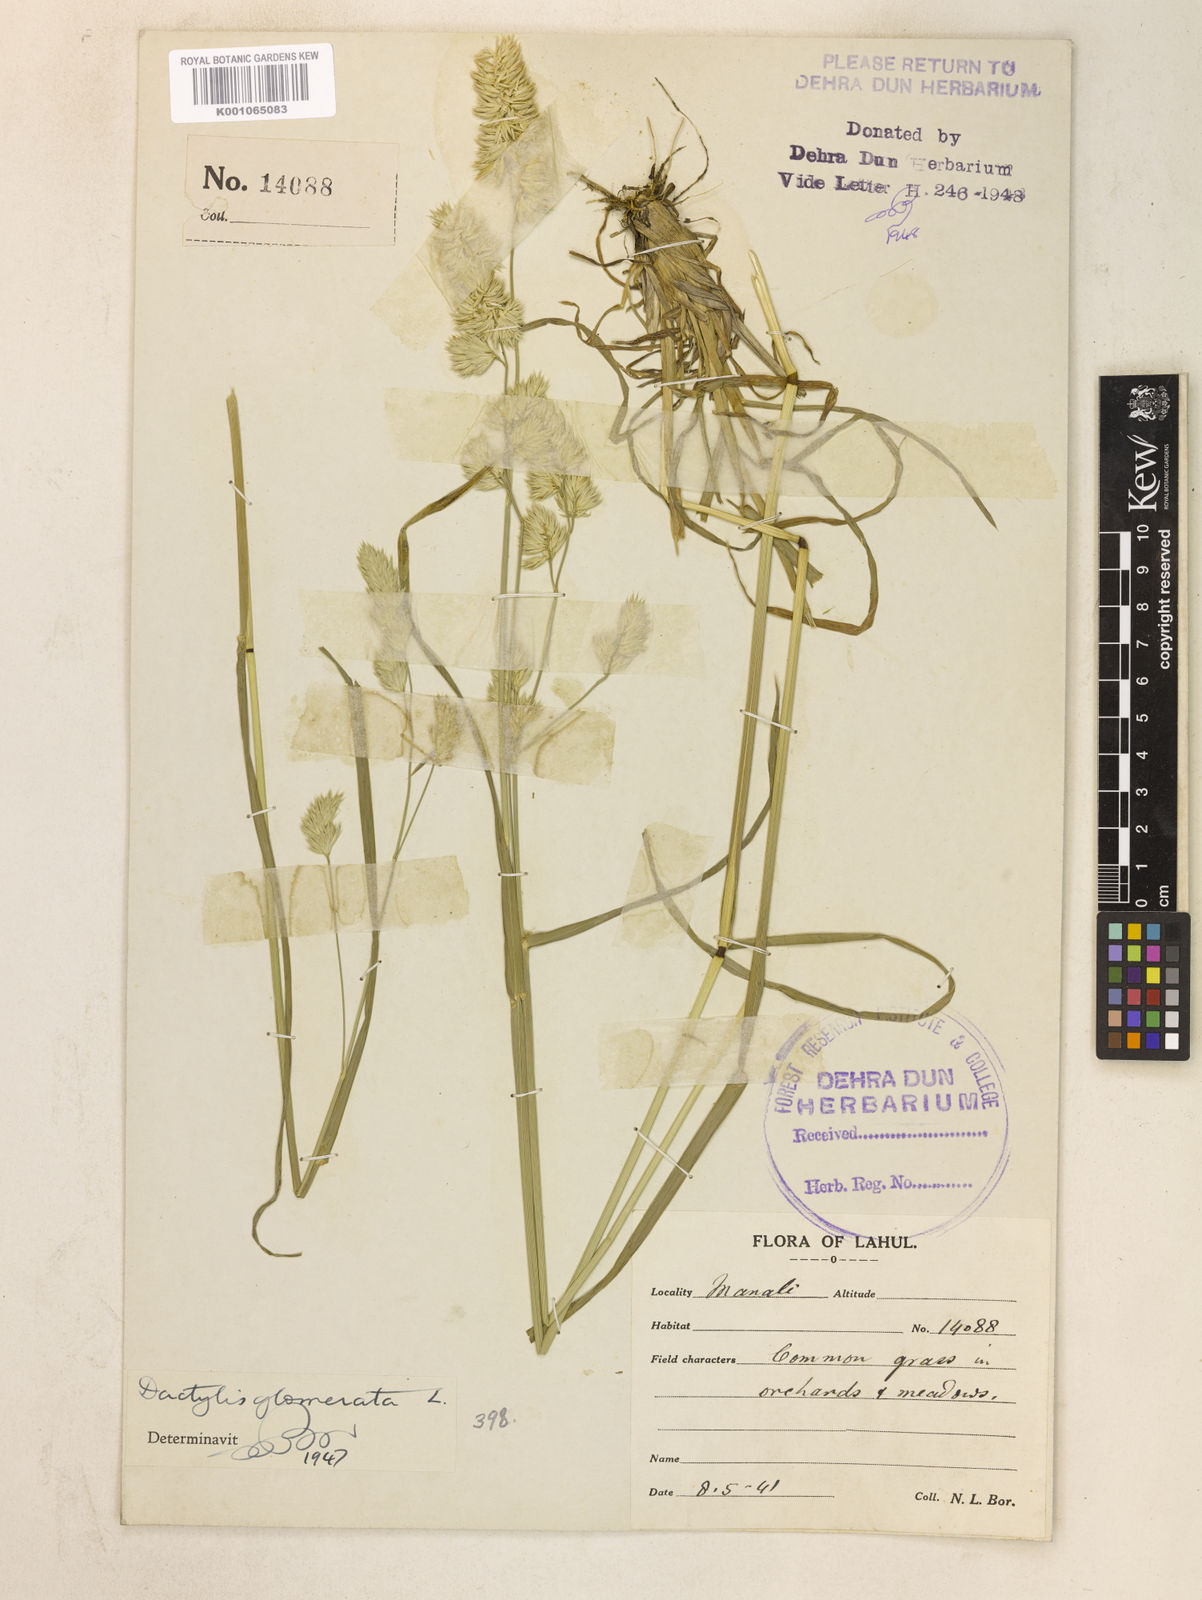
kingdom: Plantae
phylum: Tracheophyta
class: Liliopsida
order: Poales
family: Poaceae
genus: Dactylis
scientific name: Dactylis glomerata
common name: Orchardgrass
